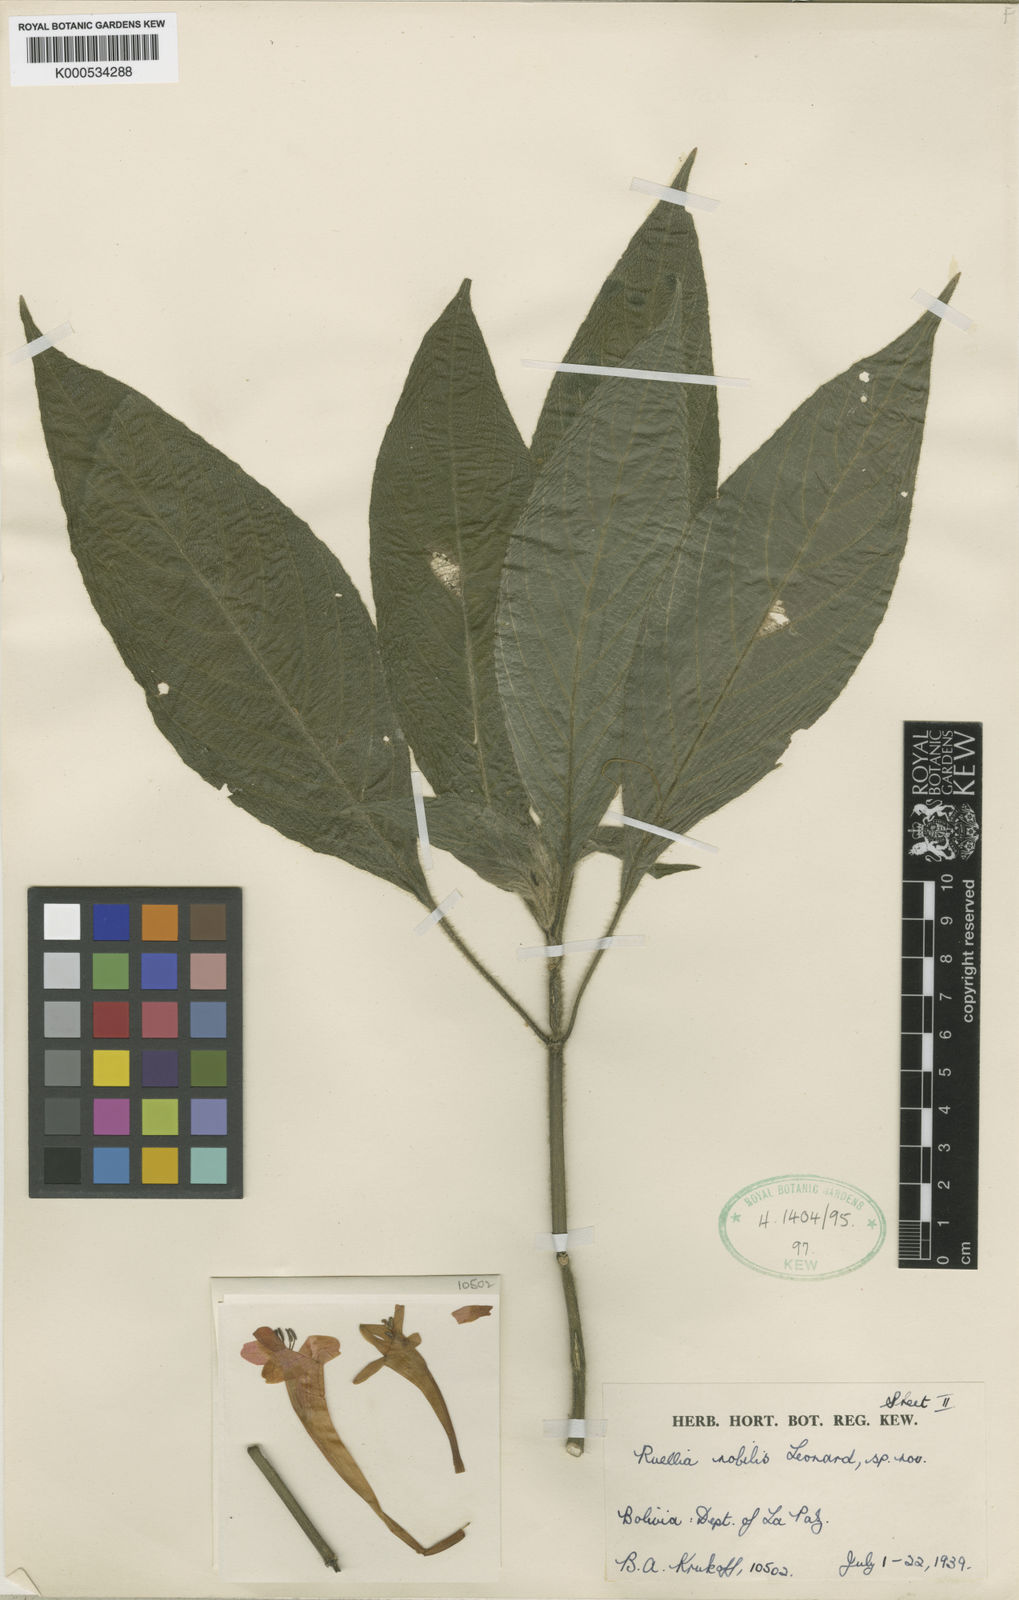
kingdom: Plantae
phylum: Tracheophyta
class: Magnoliopsida
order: Lamiales
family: Acanthaceae
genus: Ruellia
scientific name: Ruellia haenkeana
